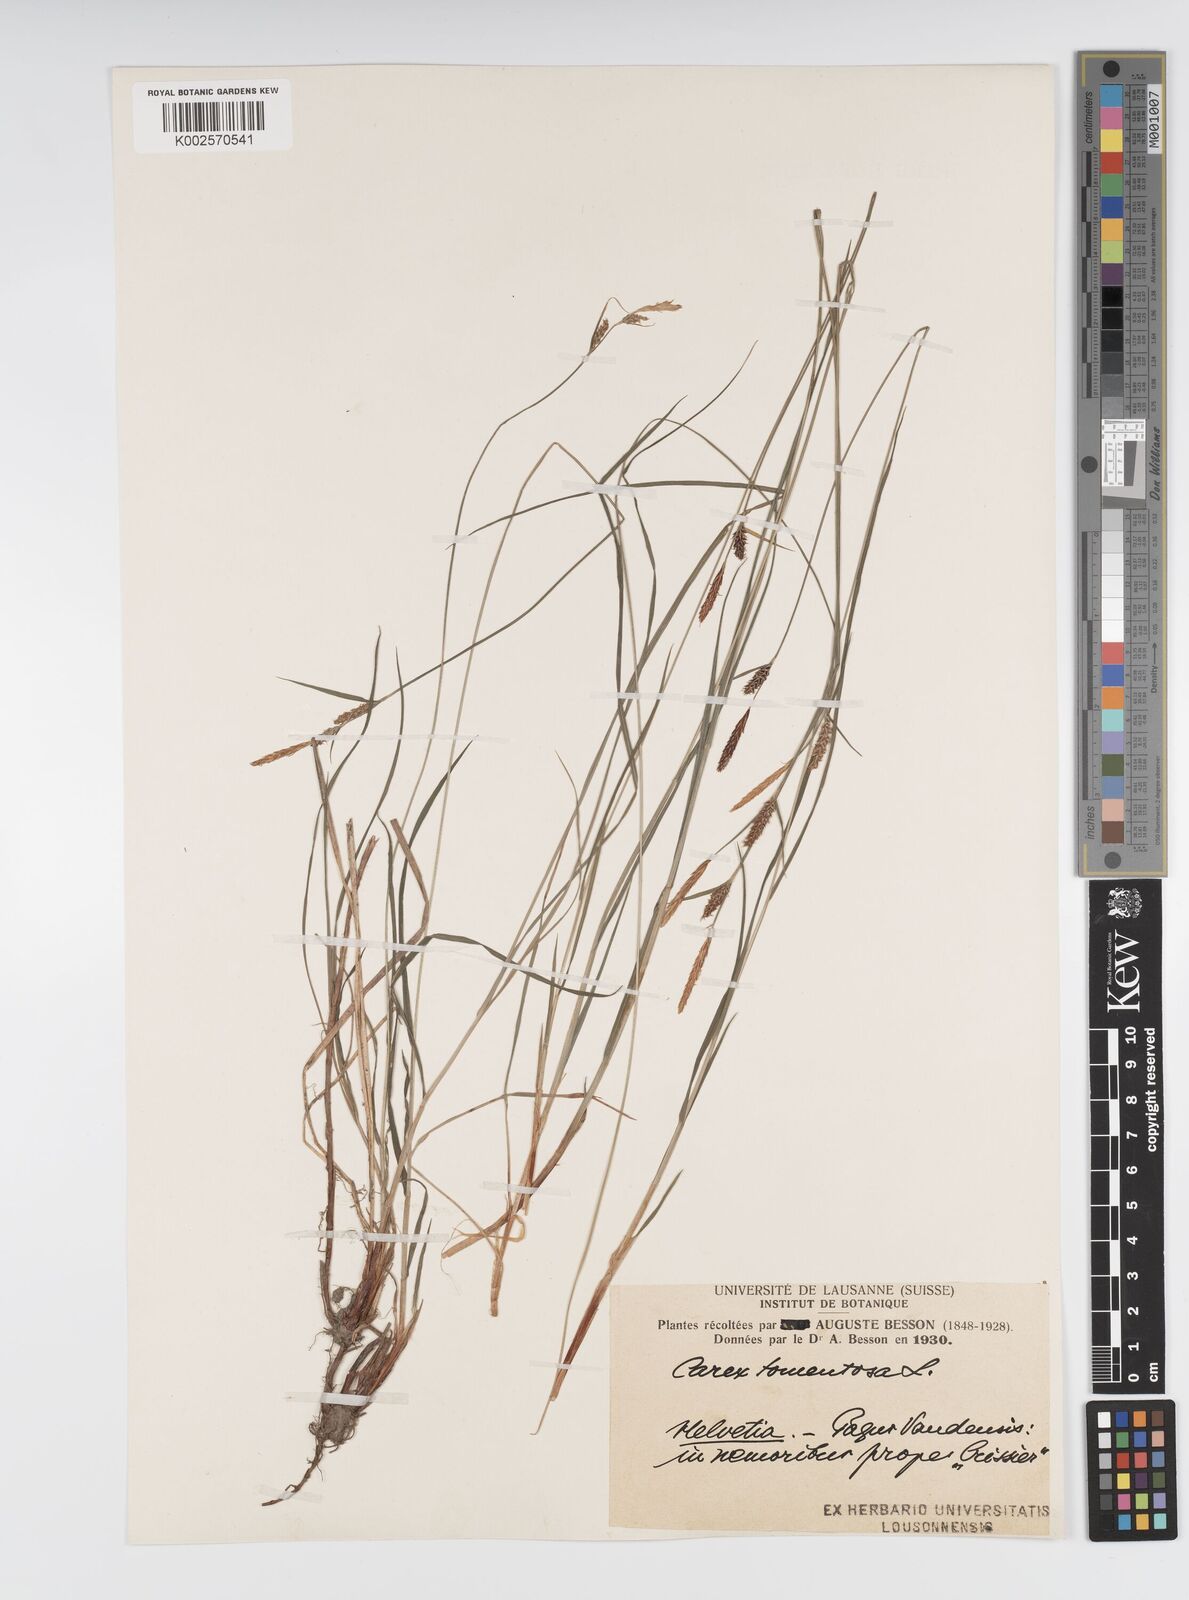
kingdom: Plantae
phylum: Tracheophyta
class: Liliopsida
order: Poales
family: Cyperaceae
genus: Carex
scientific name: Carex montana
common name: Soft-leaved sedge
